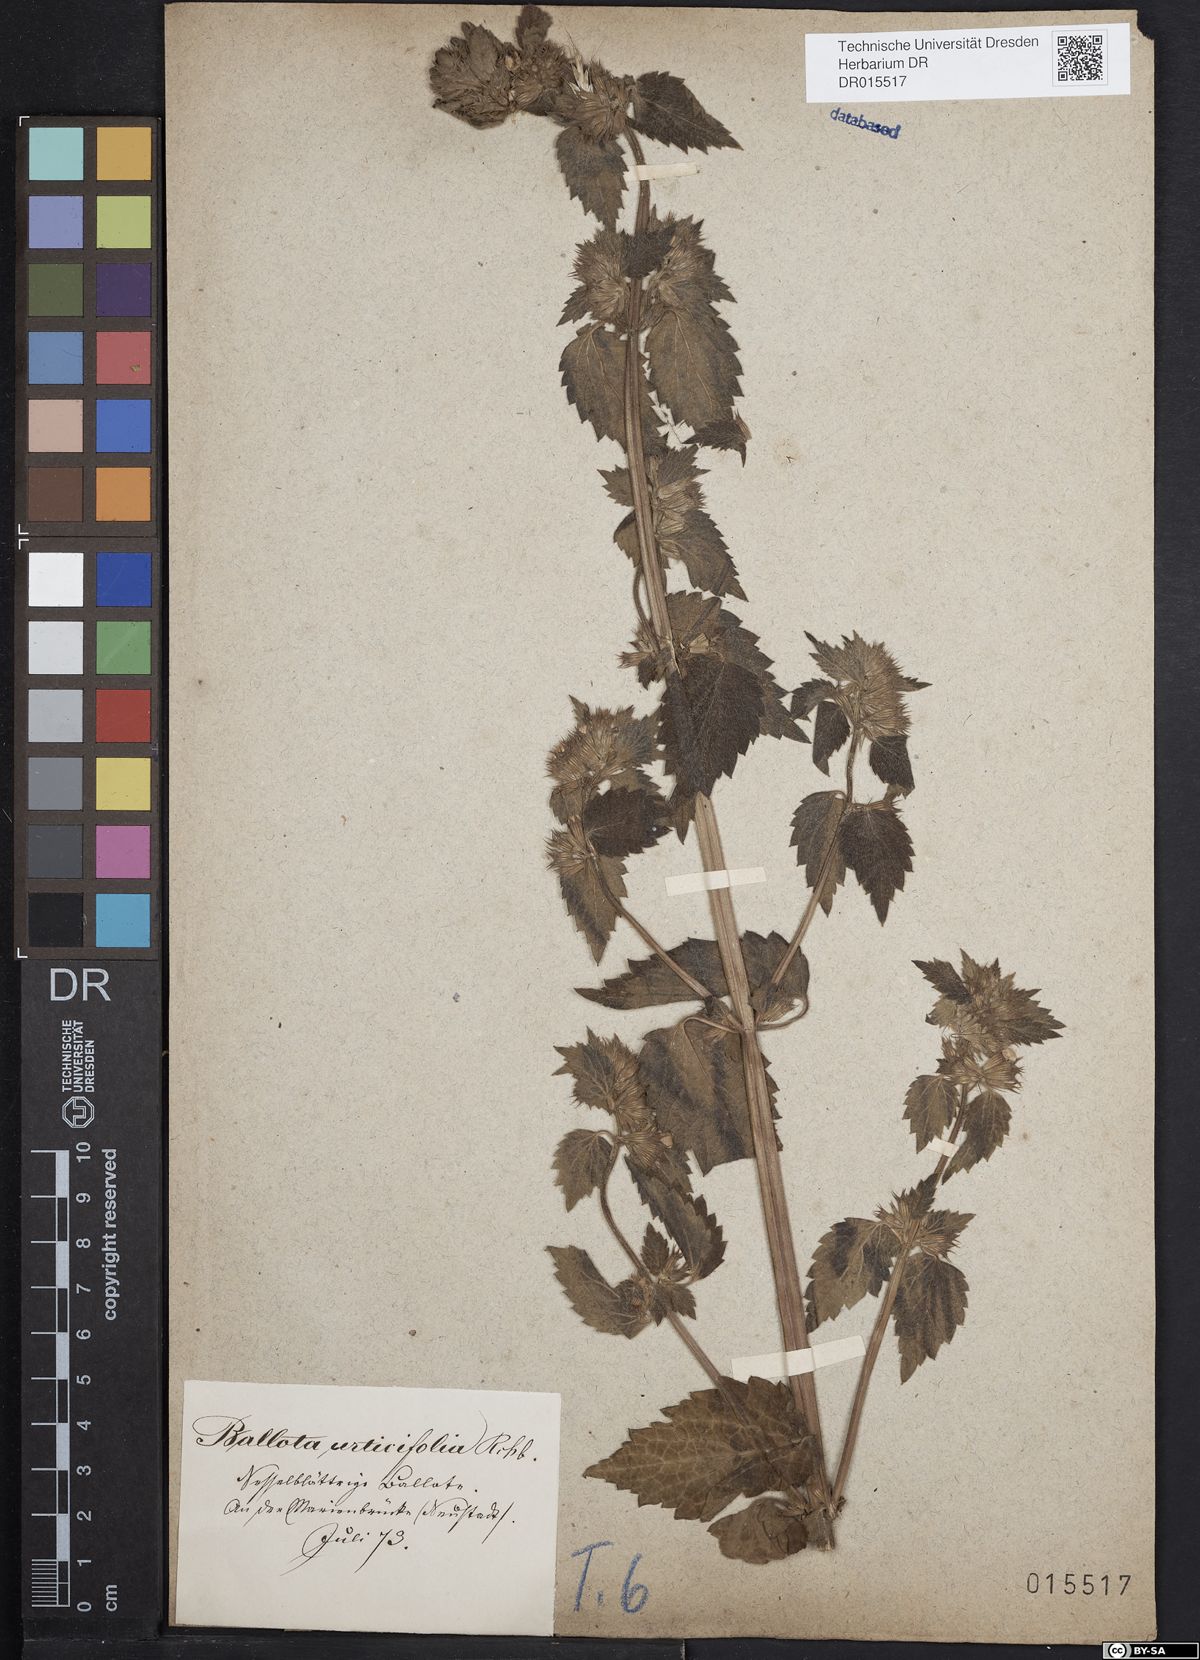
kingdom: Plantae
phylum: Tracheophyta
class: Magnoliopsida
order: Lamiales
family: Lamiaceae
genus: Ballota
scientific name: Ballota nigra
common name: Black horehound
